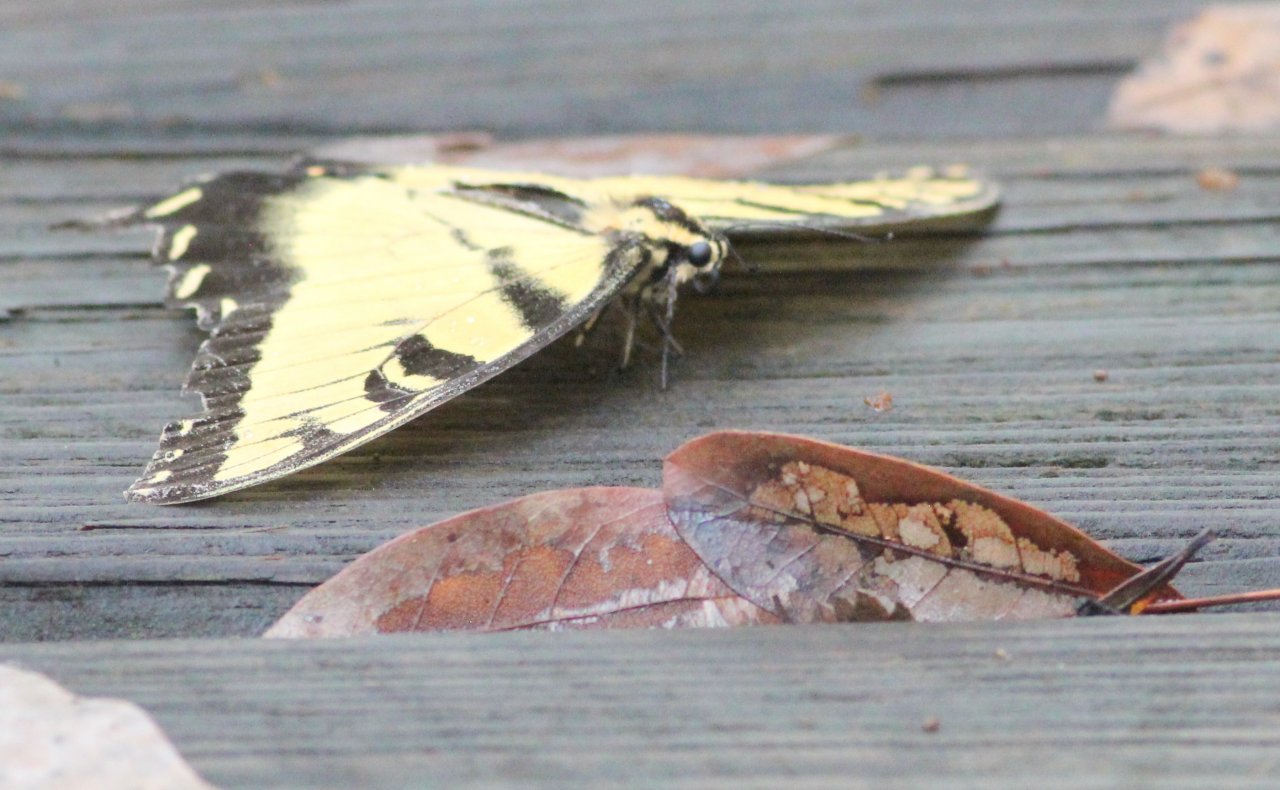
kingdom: Animalia
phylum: Arthropoda
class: Insecta
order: Lepidoptera
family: Papilionidae
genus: Pterourus
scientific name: Pterourus glaucus
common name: Eastern Tiger Swallowtail
